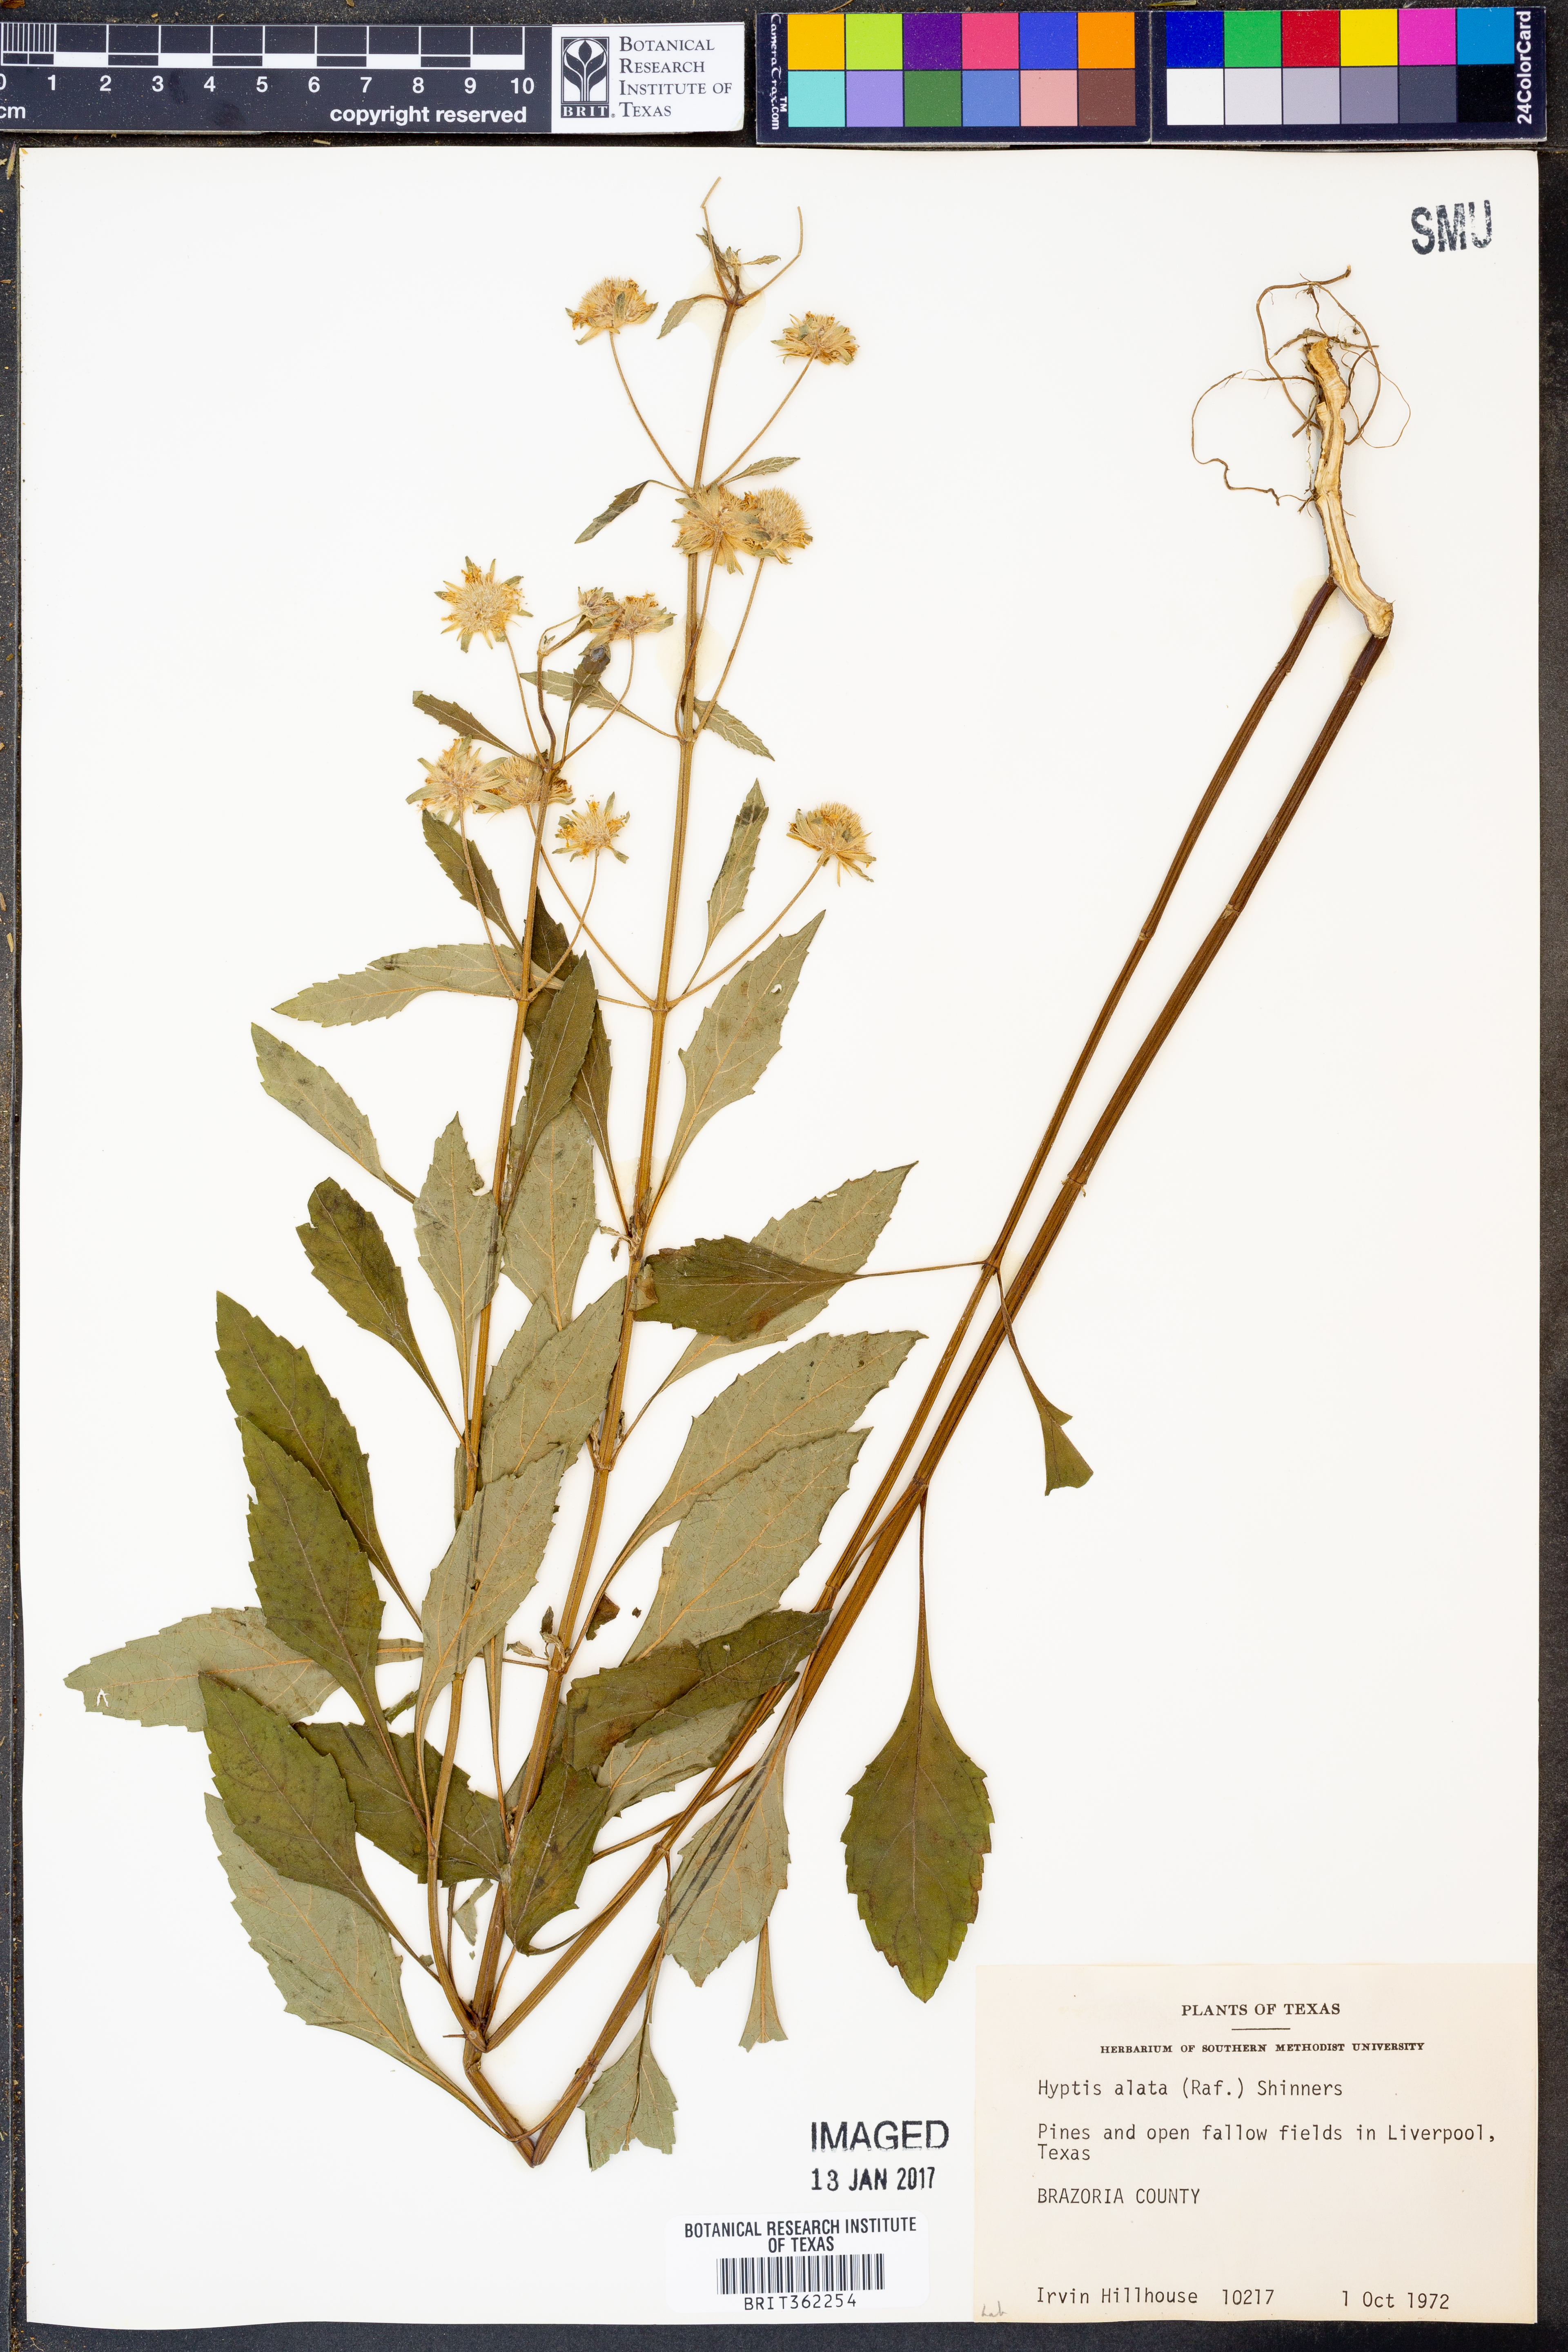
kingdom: Plantae
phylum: Tracheophyta
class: Magnoliopsida
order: Lamiales
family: Lamiaceae
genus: Hyptis
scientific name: Hyptis alata
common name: Cluster bush-mint
